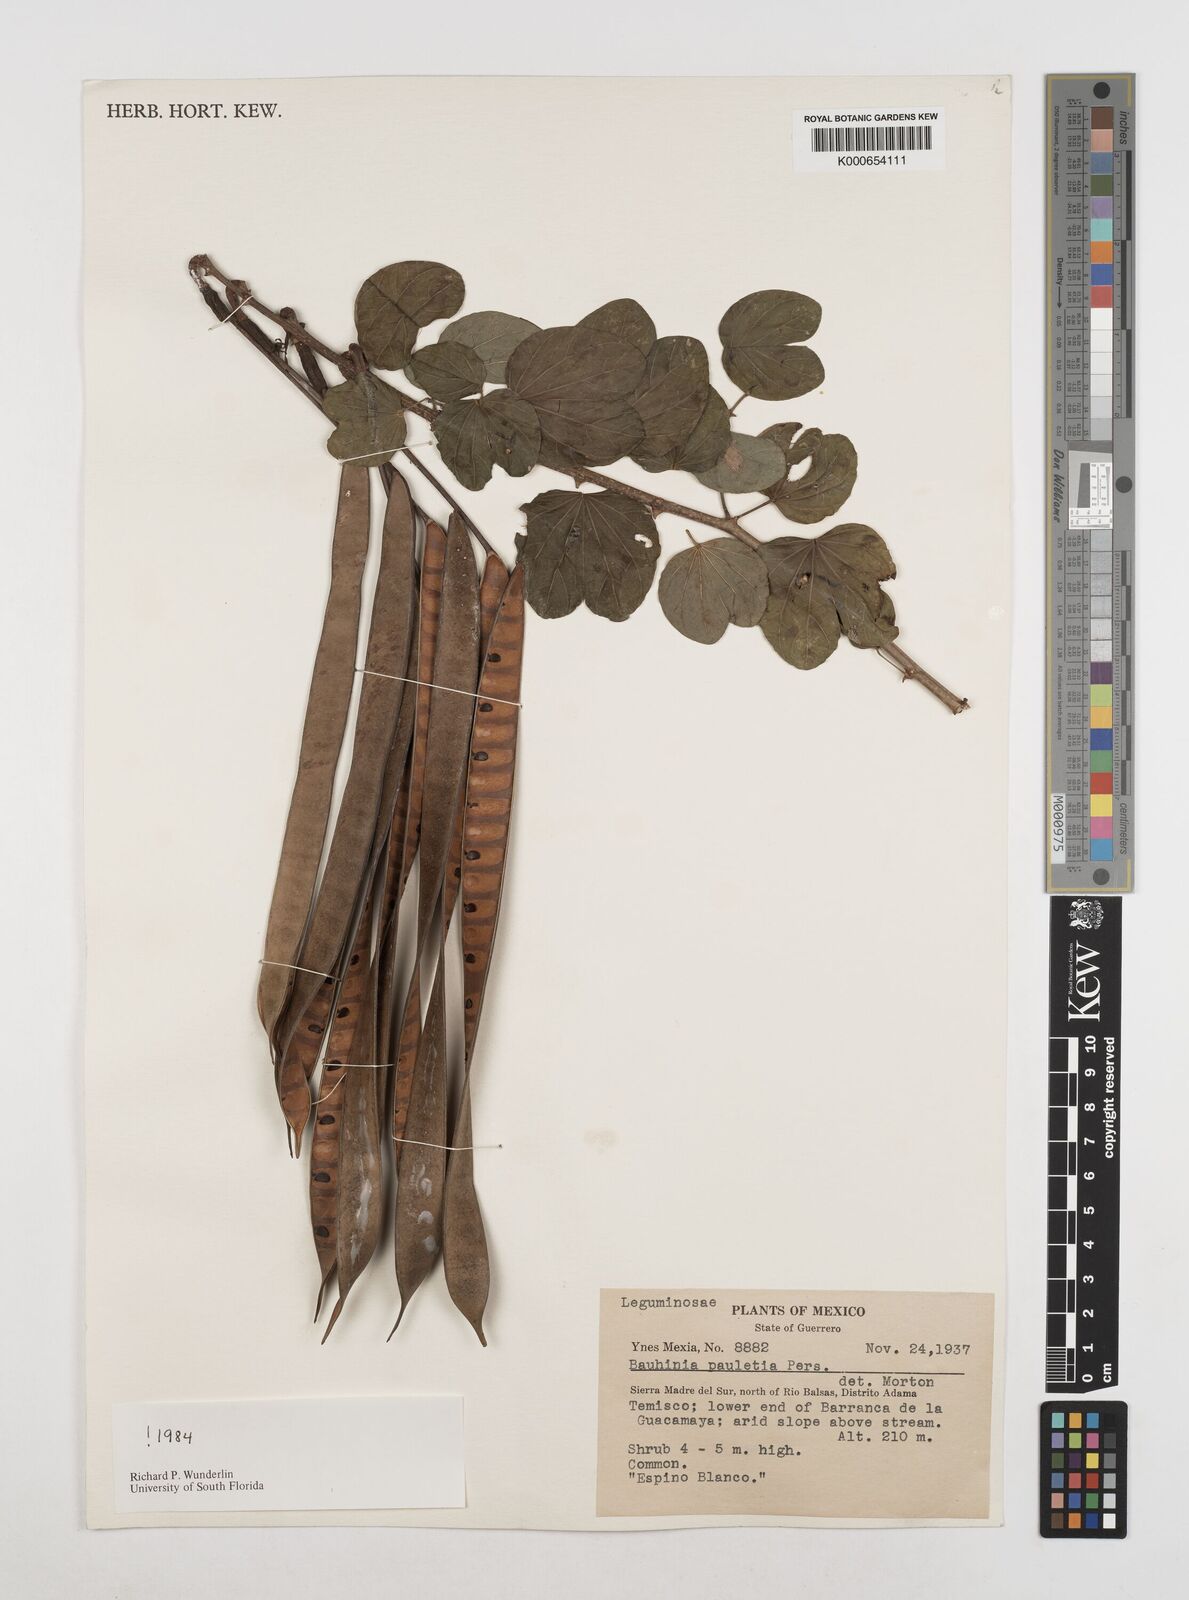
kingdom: Plantae
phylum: Tracheophyta
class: Magnoliopsida
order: Fabales
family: Fabaceae
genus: Bauhinia
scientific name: Bauhinia pauletia
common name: Railway-fence bauhinia
